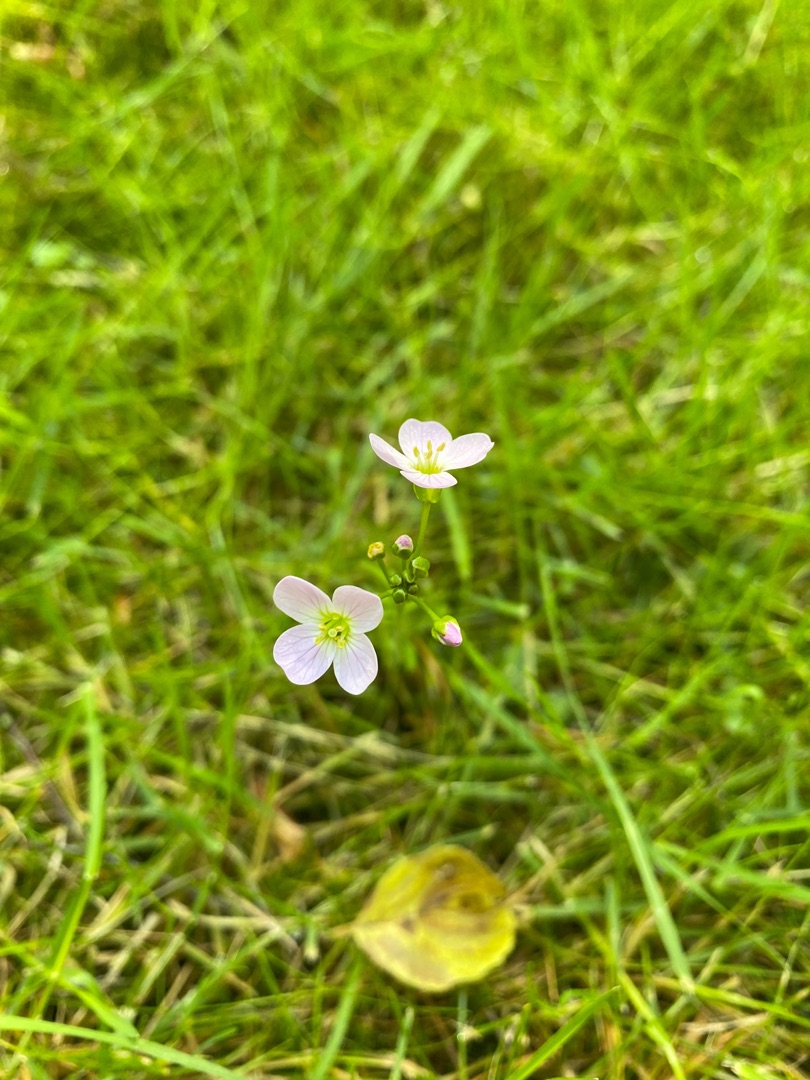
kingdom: Plantae
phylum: Tracheophyta
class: Magnoliopsida
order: Brassicales
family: Brassicaceae
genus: Cardamine
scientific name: Cardamine pratensis
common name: Engkarse
